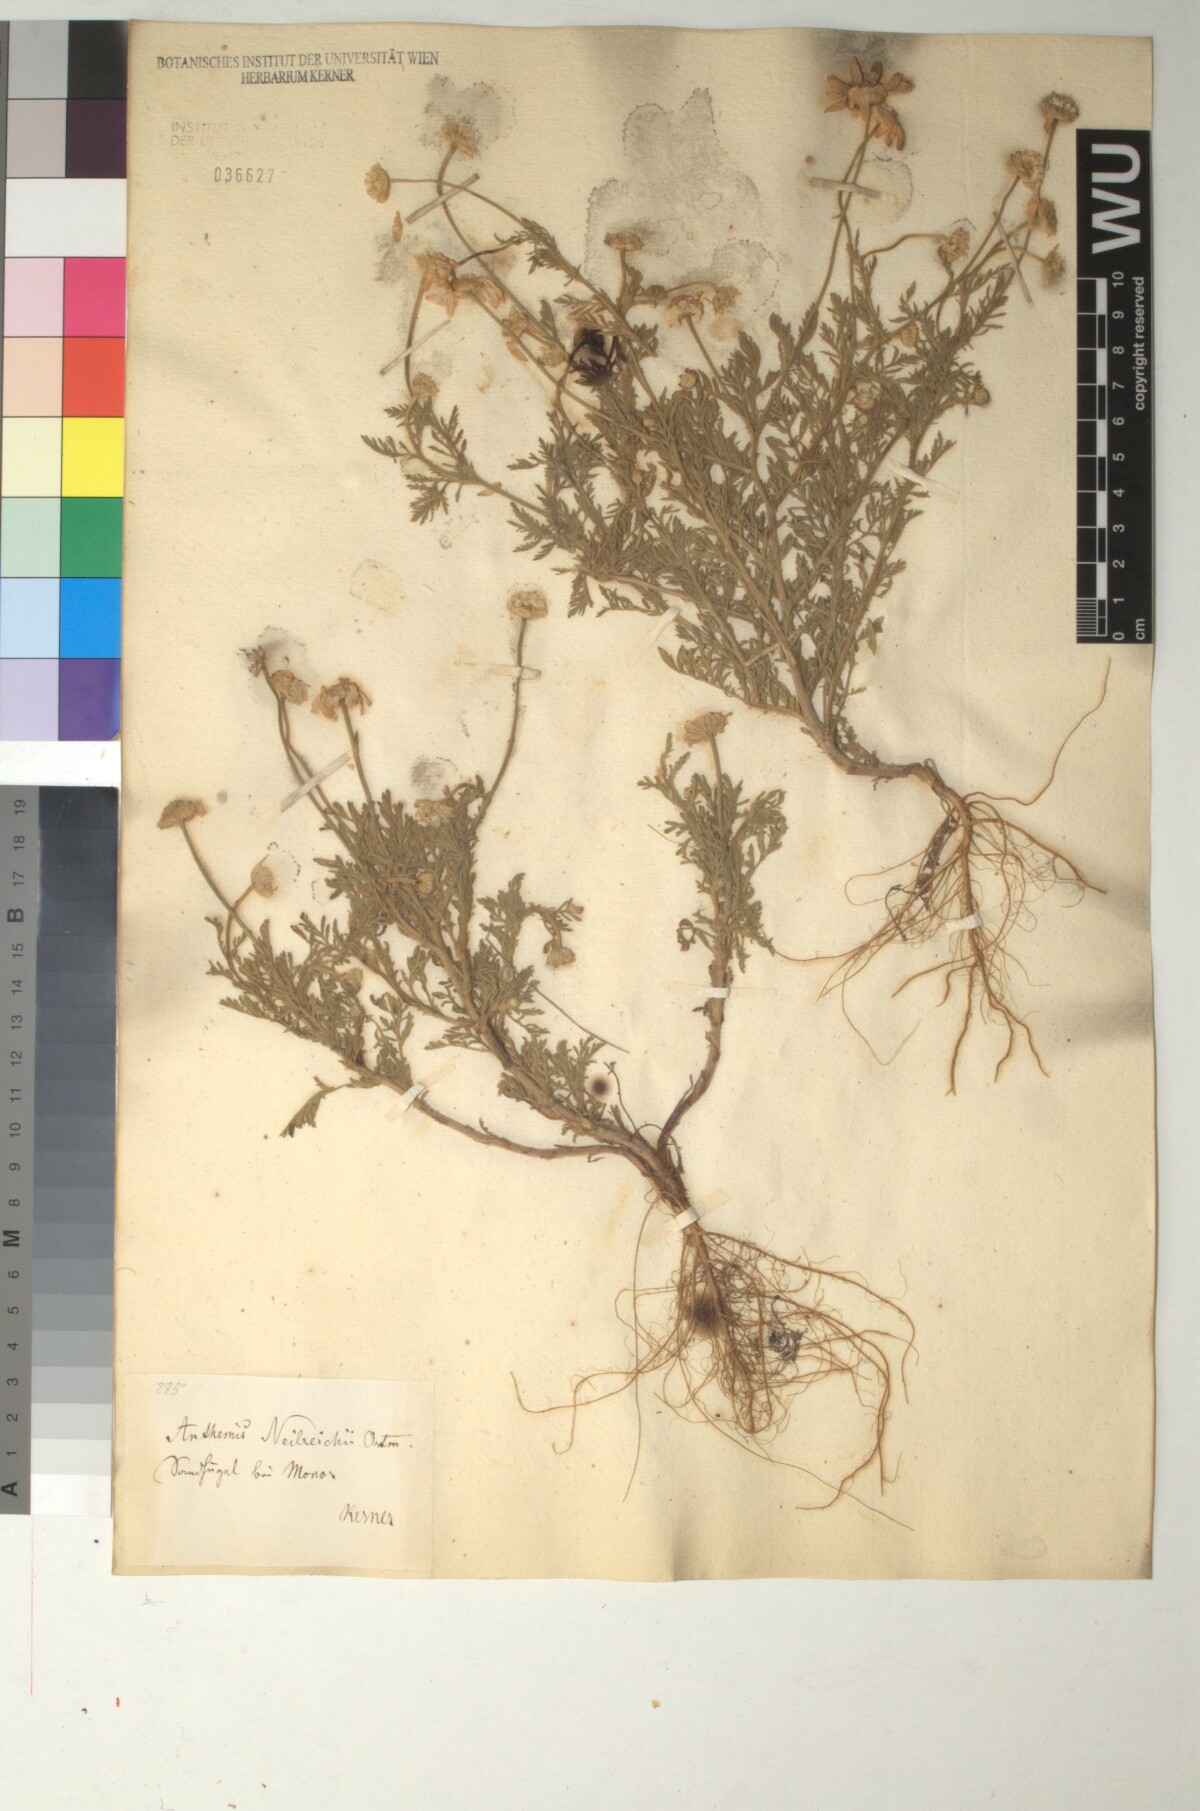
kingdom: Plantae
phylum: Tracheophyta
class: Magnoliopsida
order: Asterales
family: Asteraceae
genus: Anthemis
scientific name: Anthemis ruthenica
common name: Eastern chamomile
